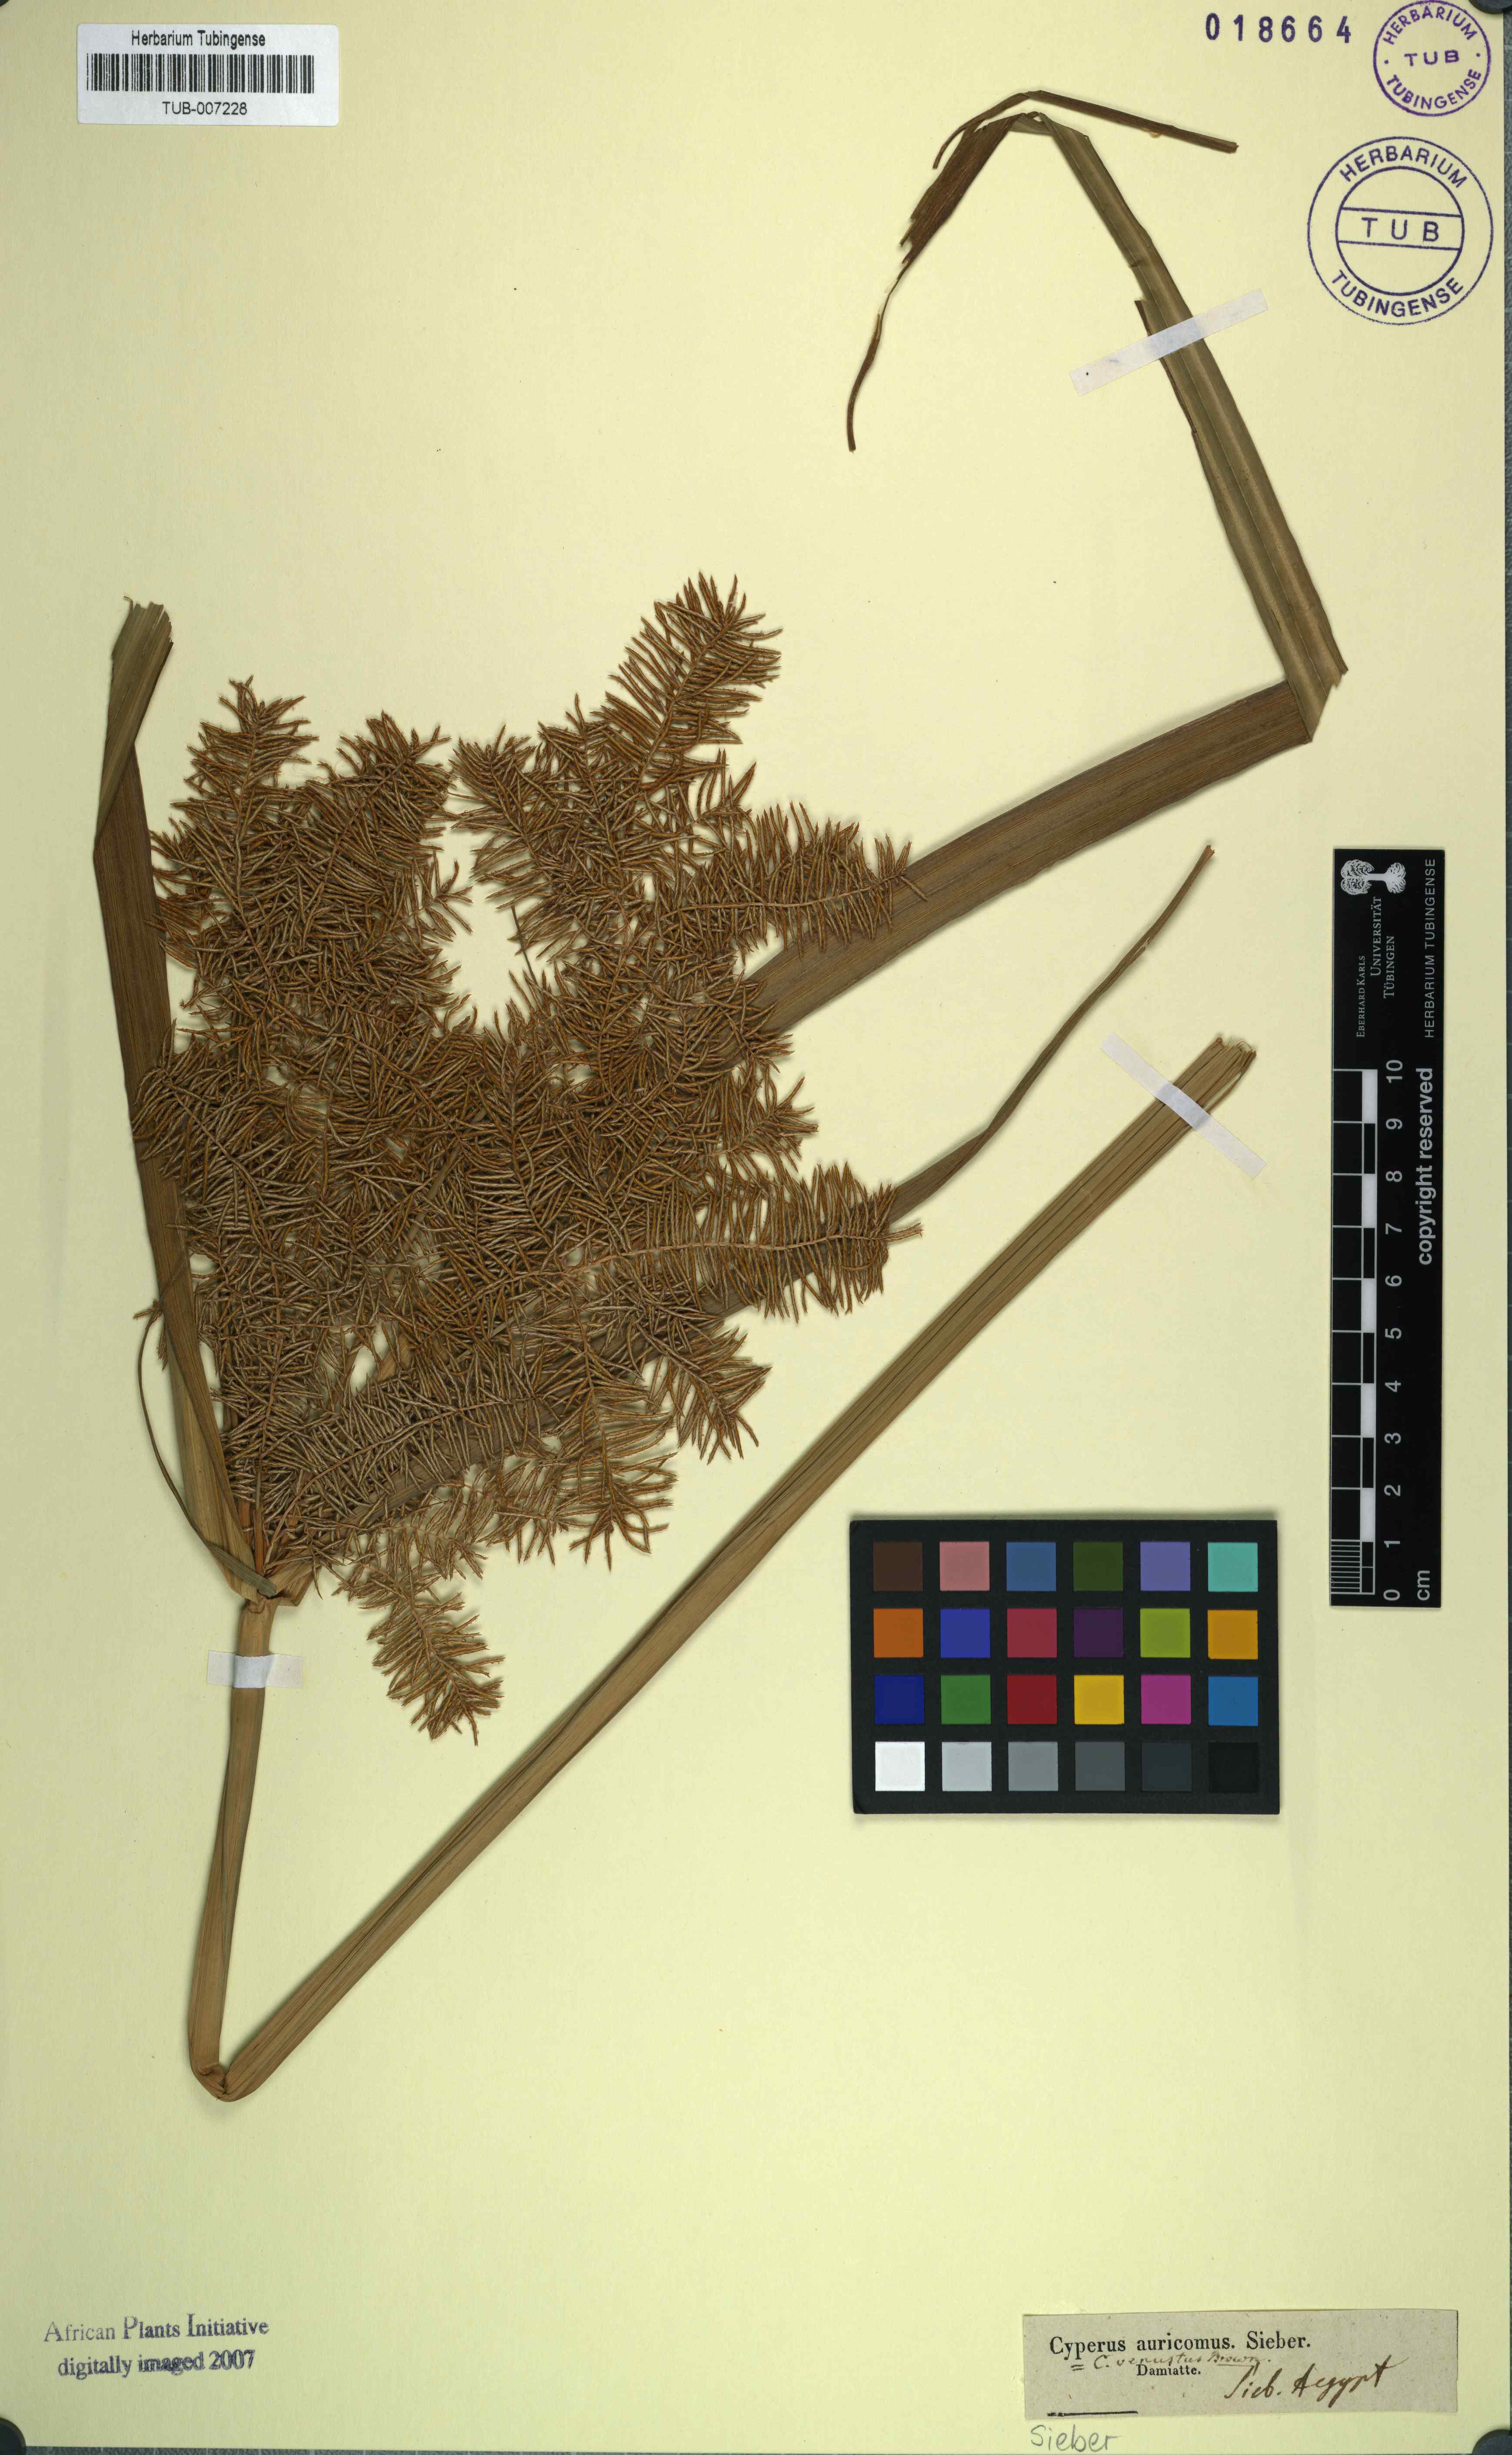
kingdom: Plantae
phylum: Tracheophyta
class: Liliopsida
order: Poales
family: Cyperaceae
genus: Cyperus
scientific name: Cyperus digitatus
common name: Finger flatsedge
